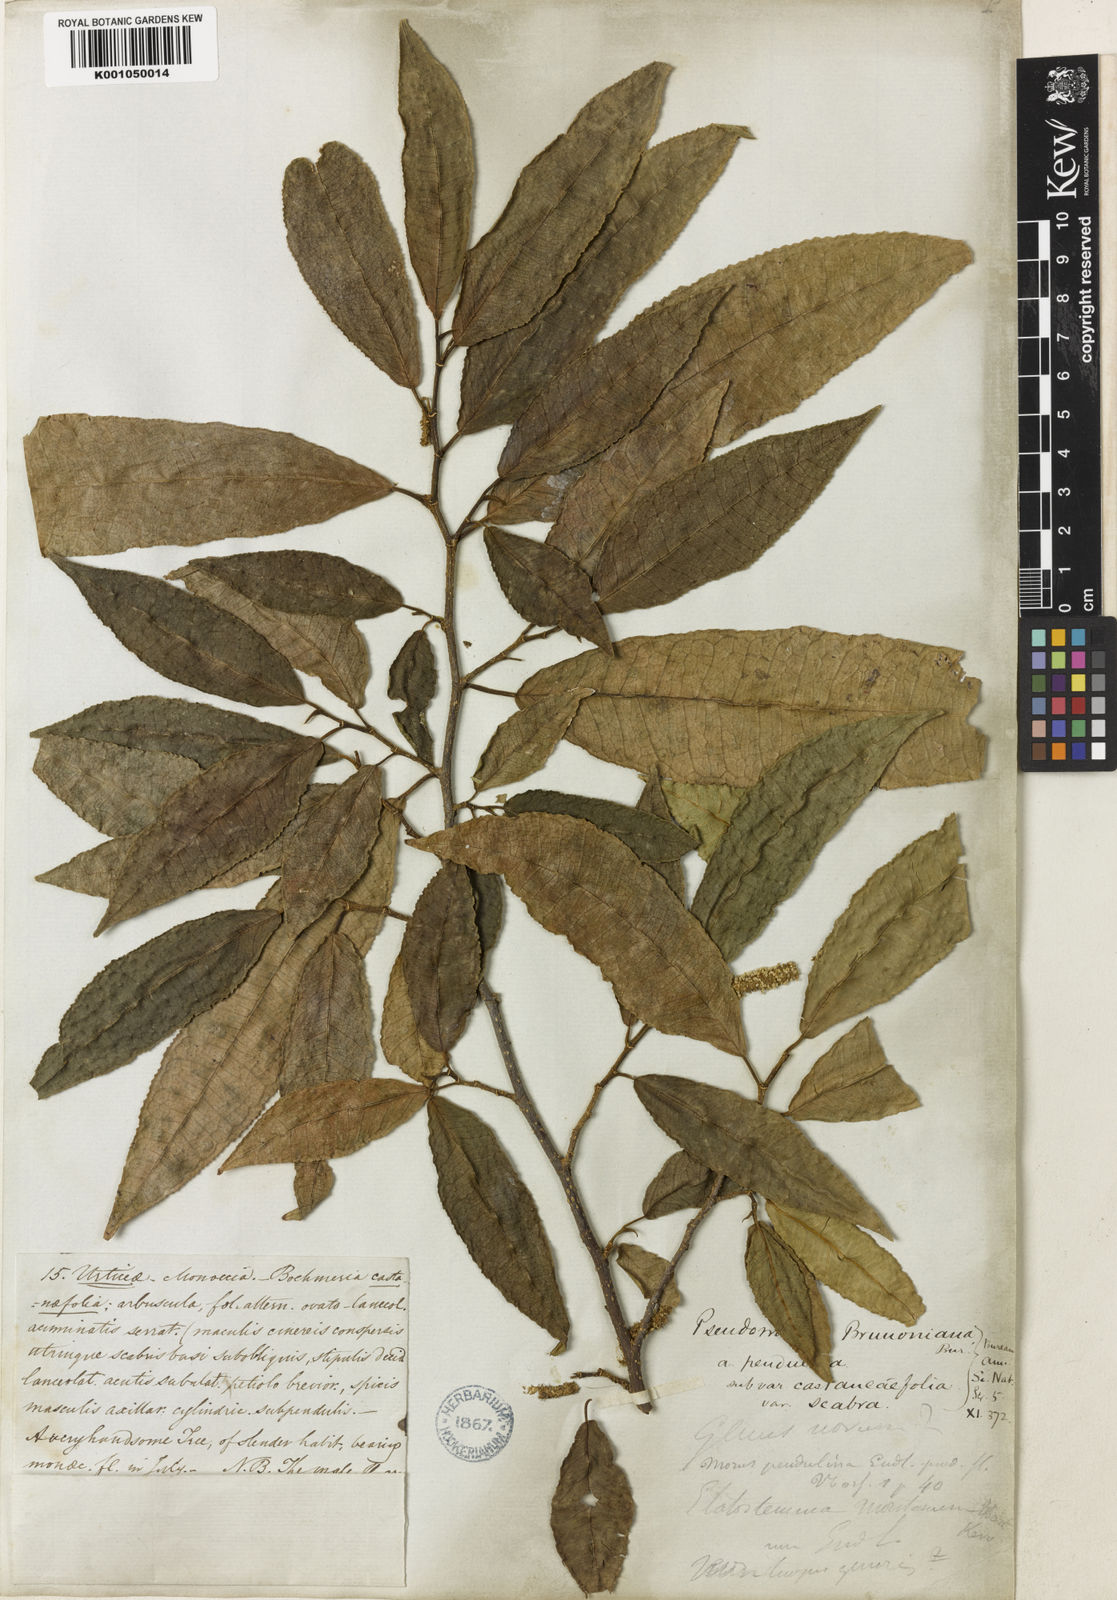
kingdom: Plantae
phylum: Tracheophyta
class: Magnoliopsida
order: Rosales
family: Moraceae
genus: Paratrophis
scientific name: Paratrophis pendulina
